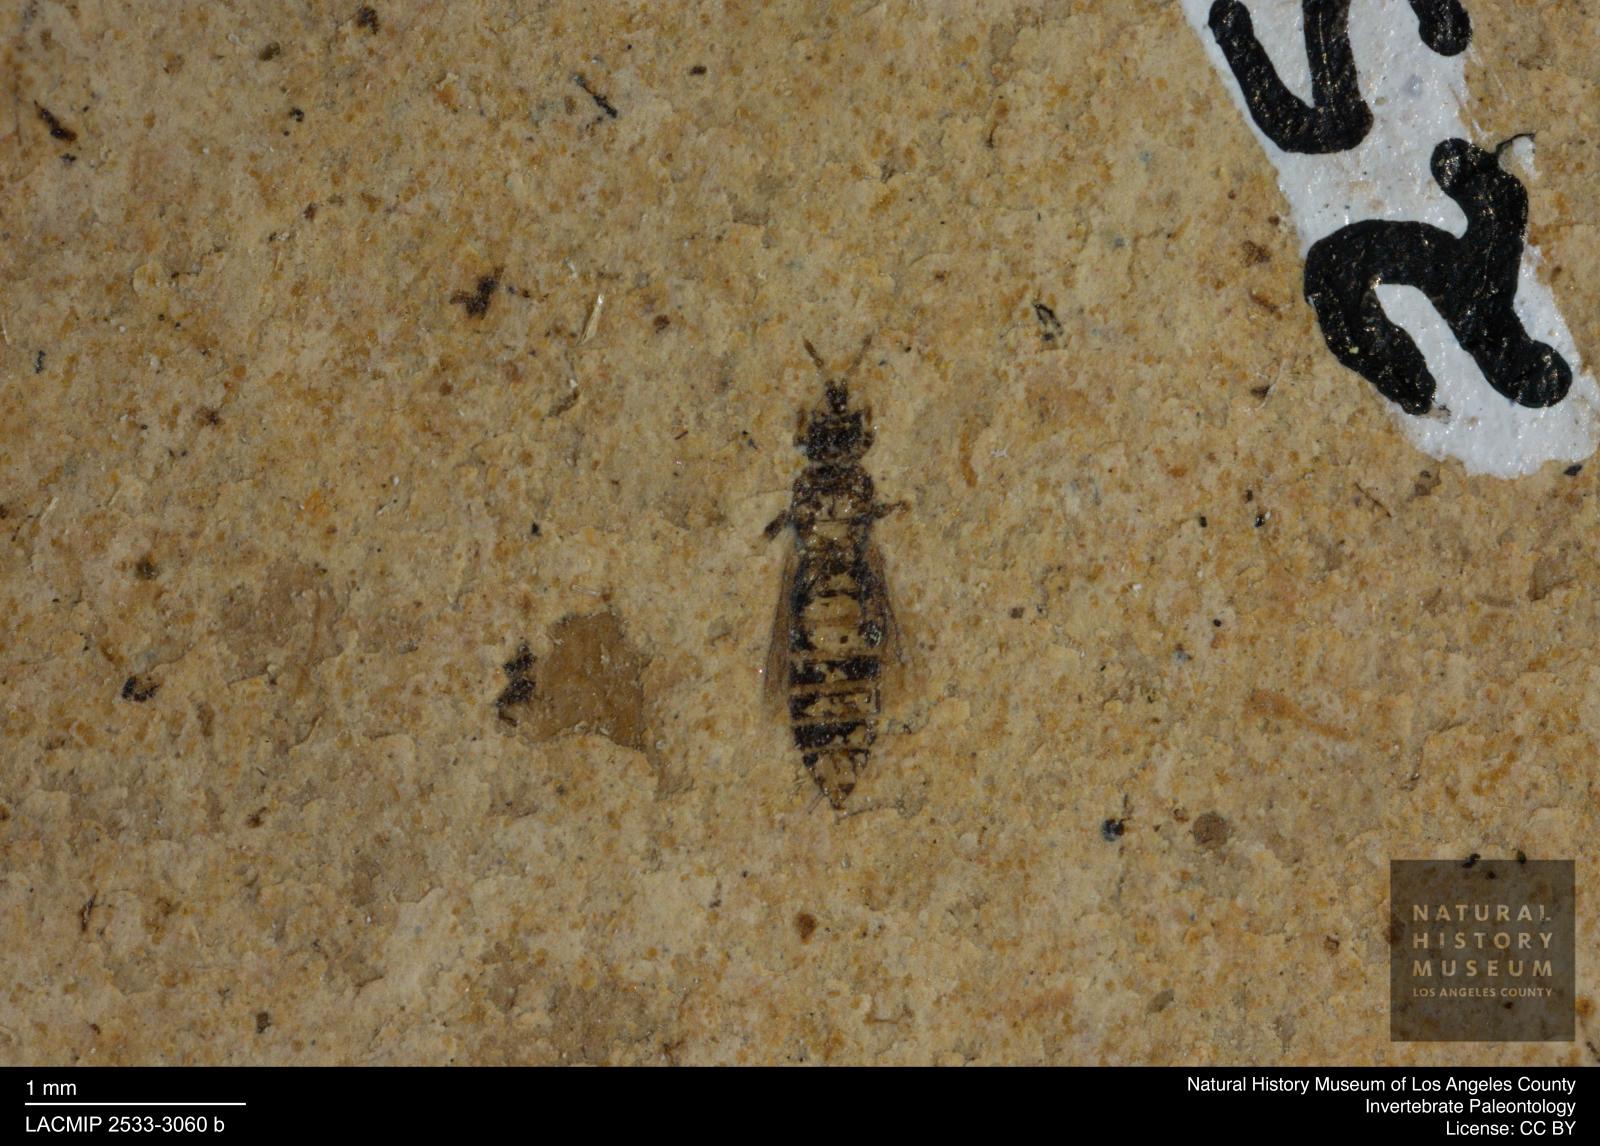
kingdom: Animalia
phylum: Arthropoda
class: Insecta
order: Thysanoptera
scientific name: Thysanoptera
